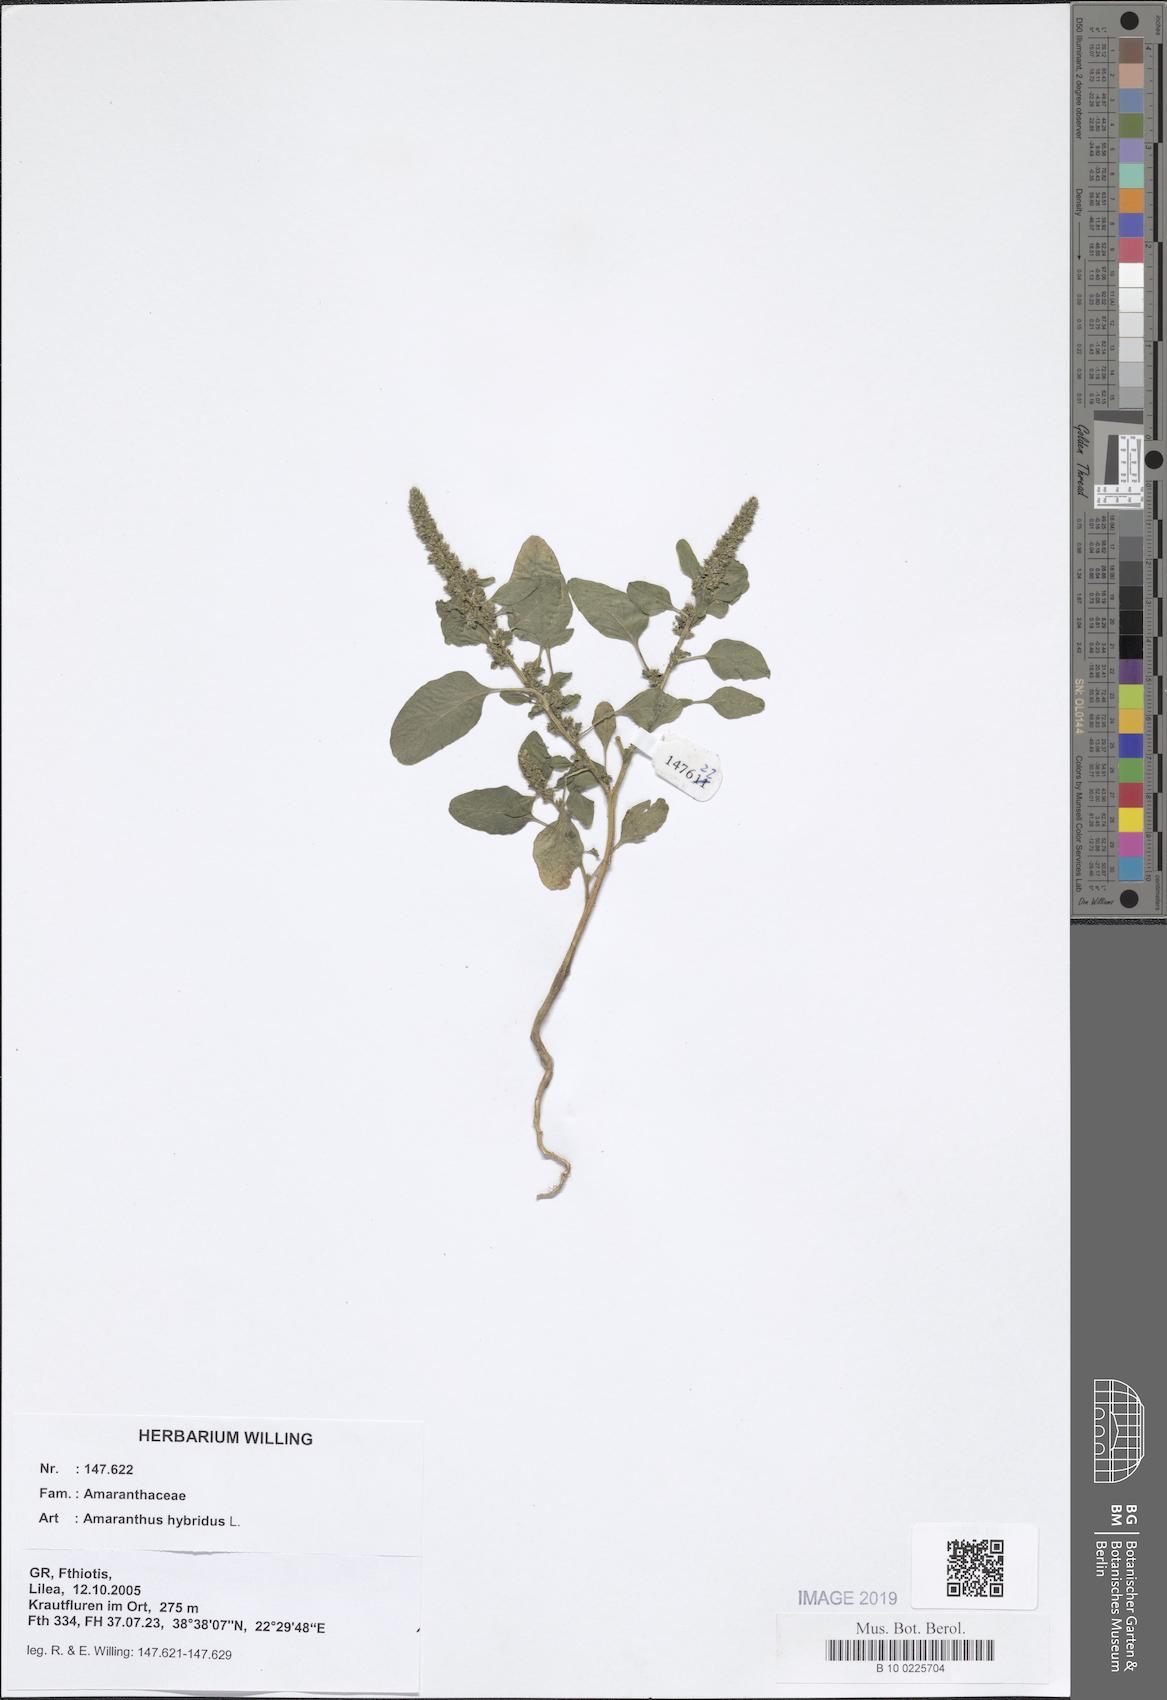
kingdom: Plantae
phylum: Tracheophyta
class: Magnoliopsida
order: Caryophyllales
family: Amaranthaceae
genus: Amaranthus
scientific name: Amaranthus hybridus
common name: Green amaranth
